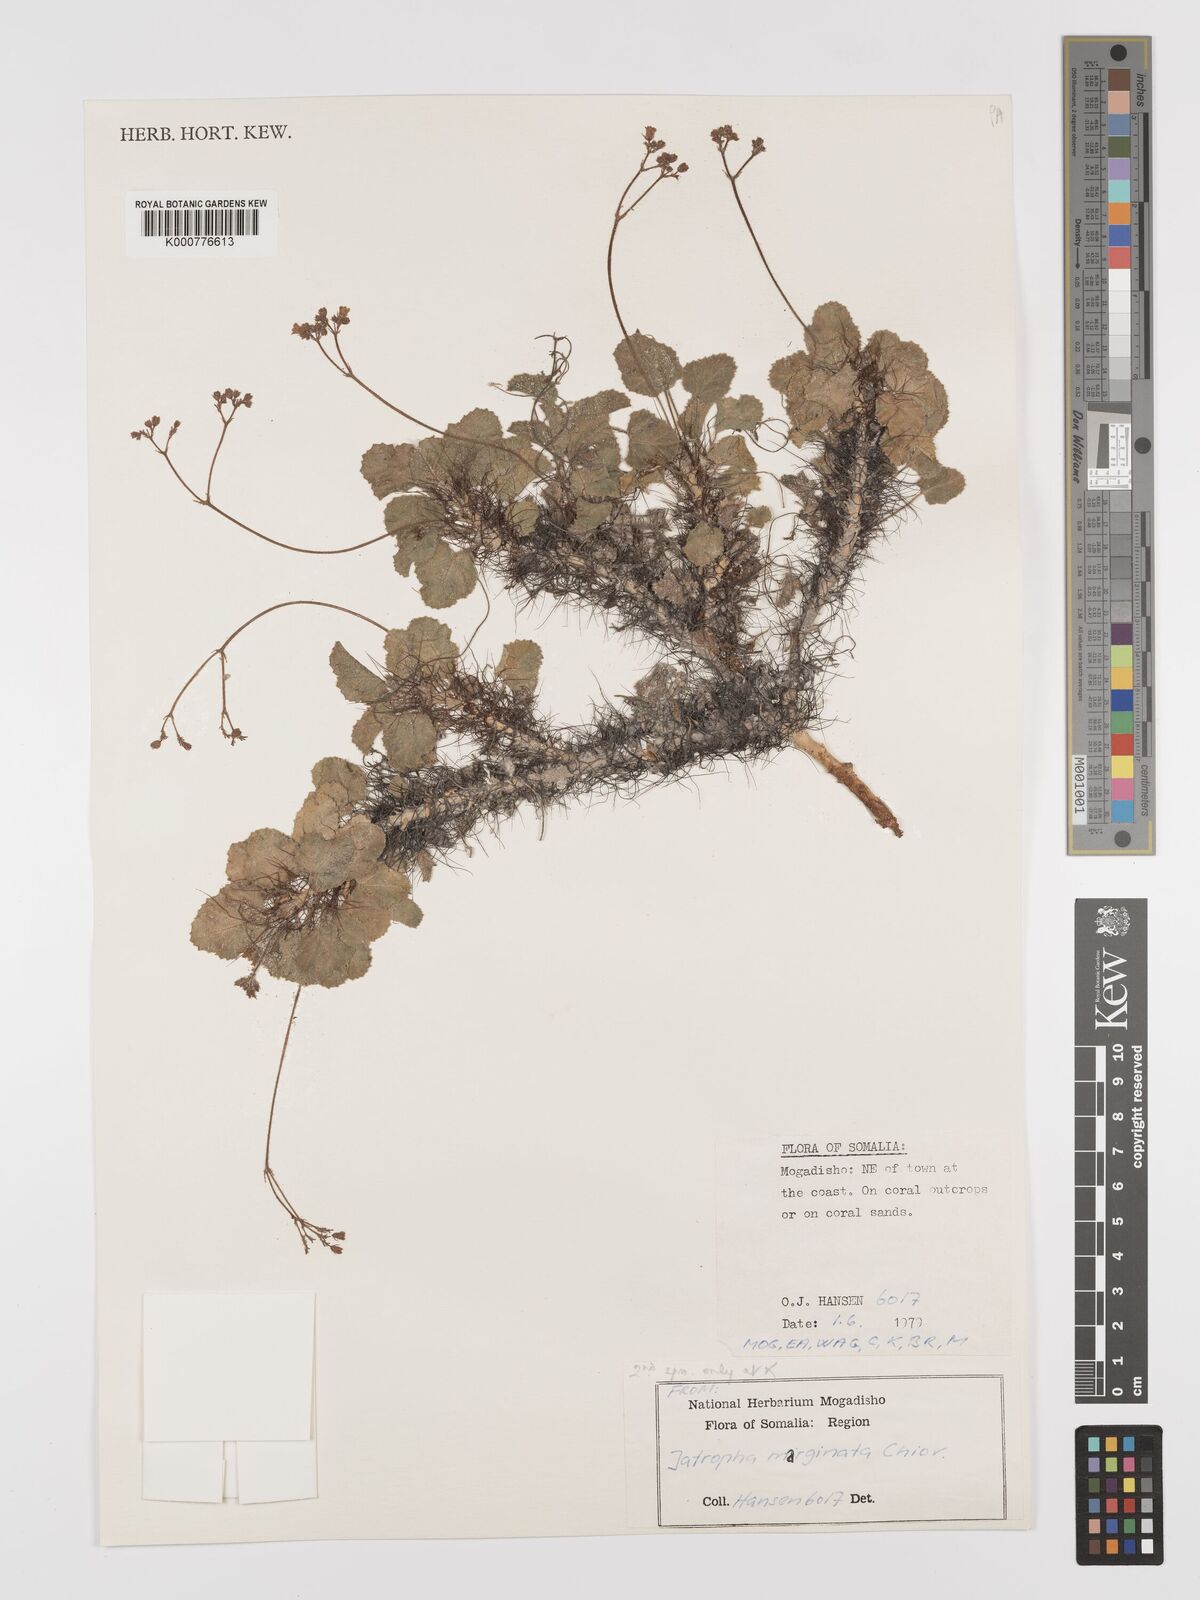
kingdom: Plantae
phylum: Tracheophyta
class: Magnoliopsida
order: Malpighiales
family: Euphorbiaceae
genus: Jatropha
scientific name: Jatropha
